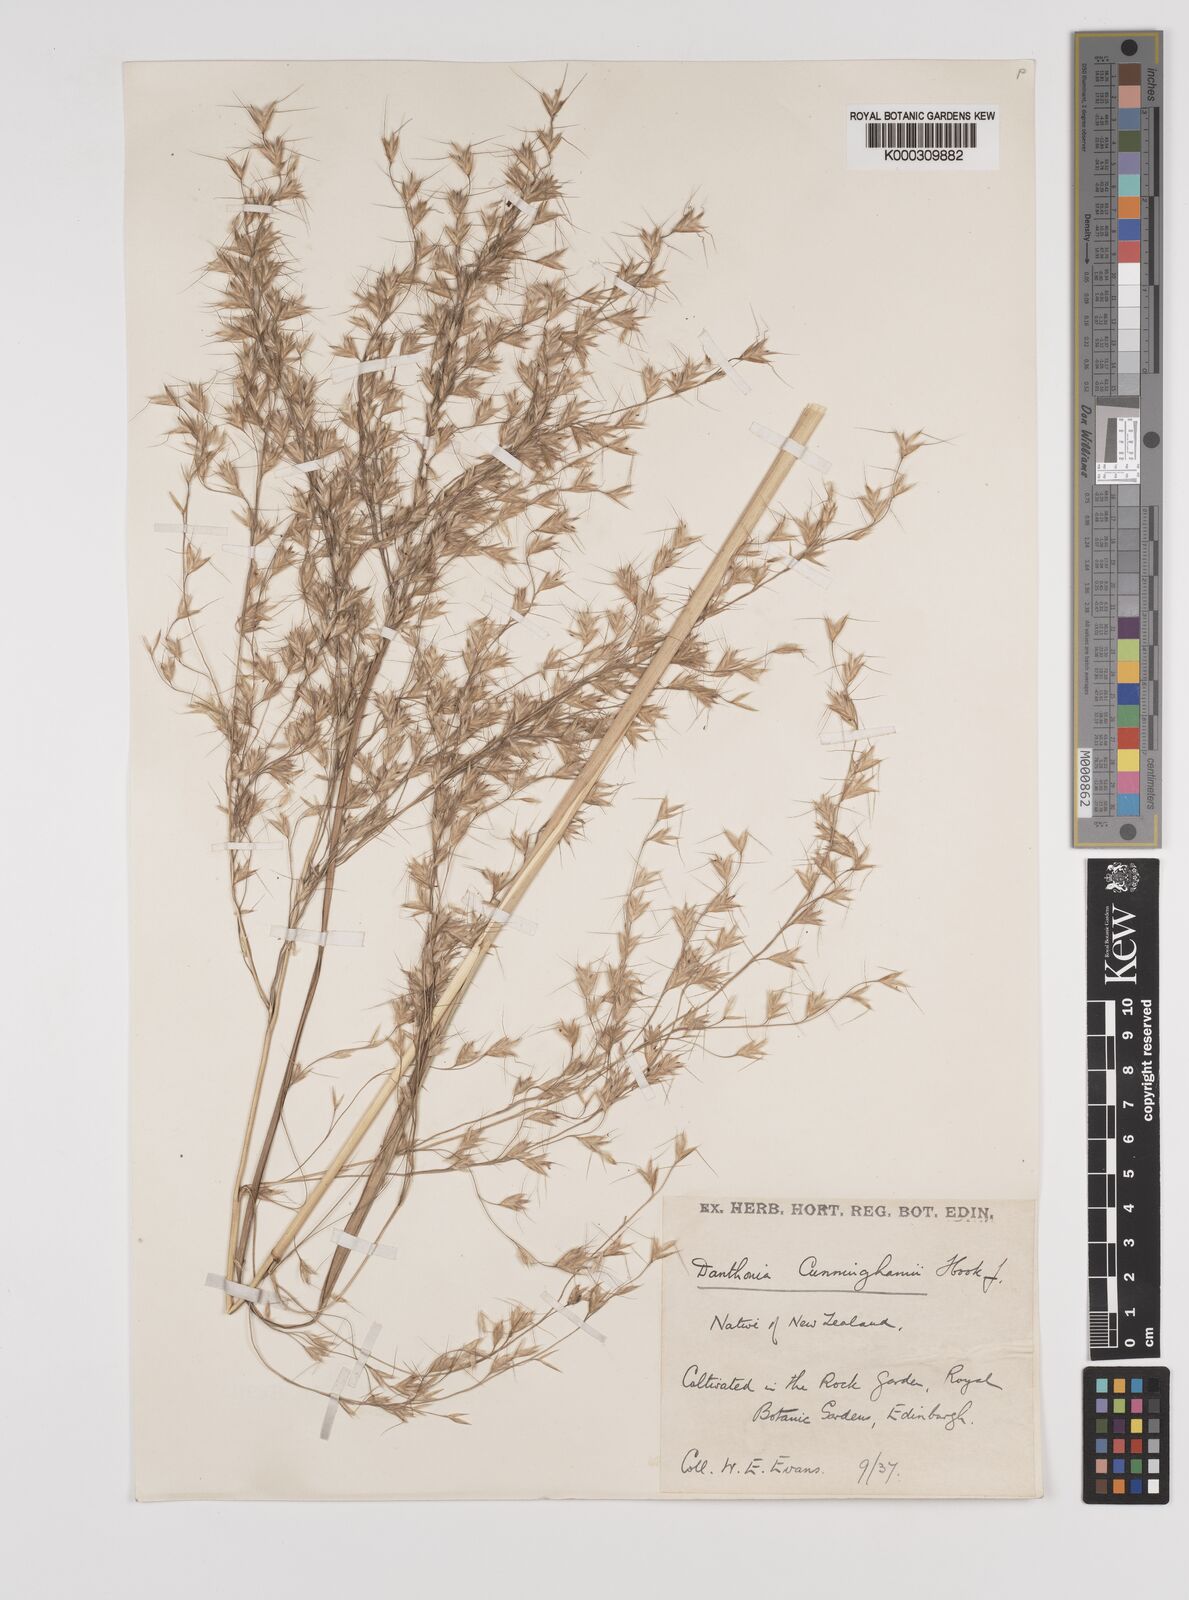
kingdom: Plantae
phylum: Tracheophyta
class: Liliopsida
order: Poales
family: Poaceae
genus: Chionochloa
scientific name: Chionochloa conspicua
